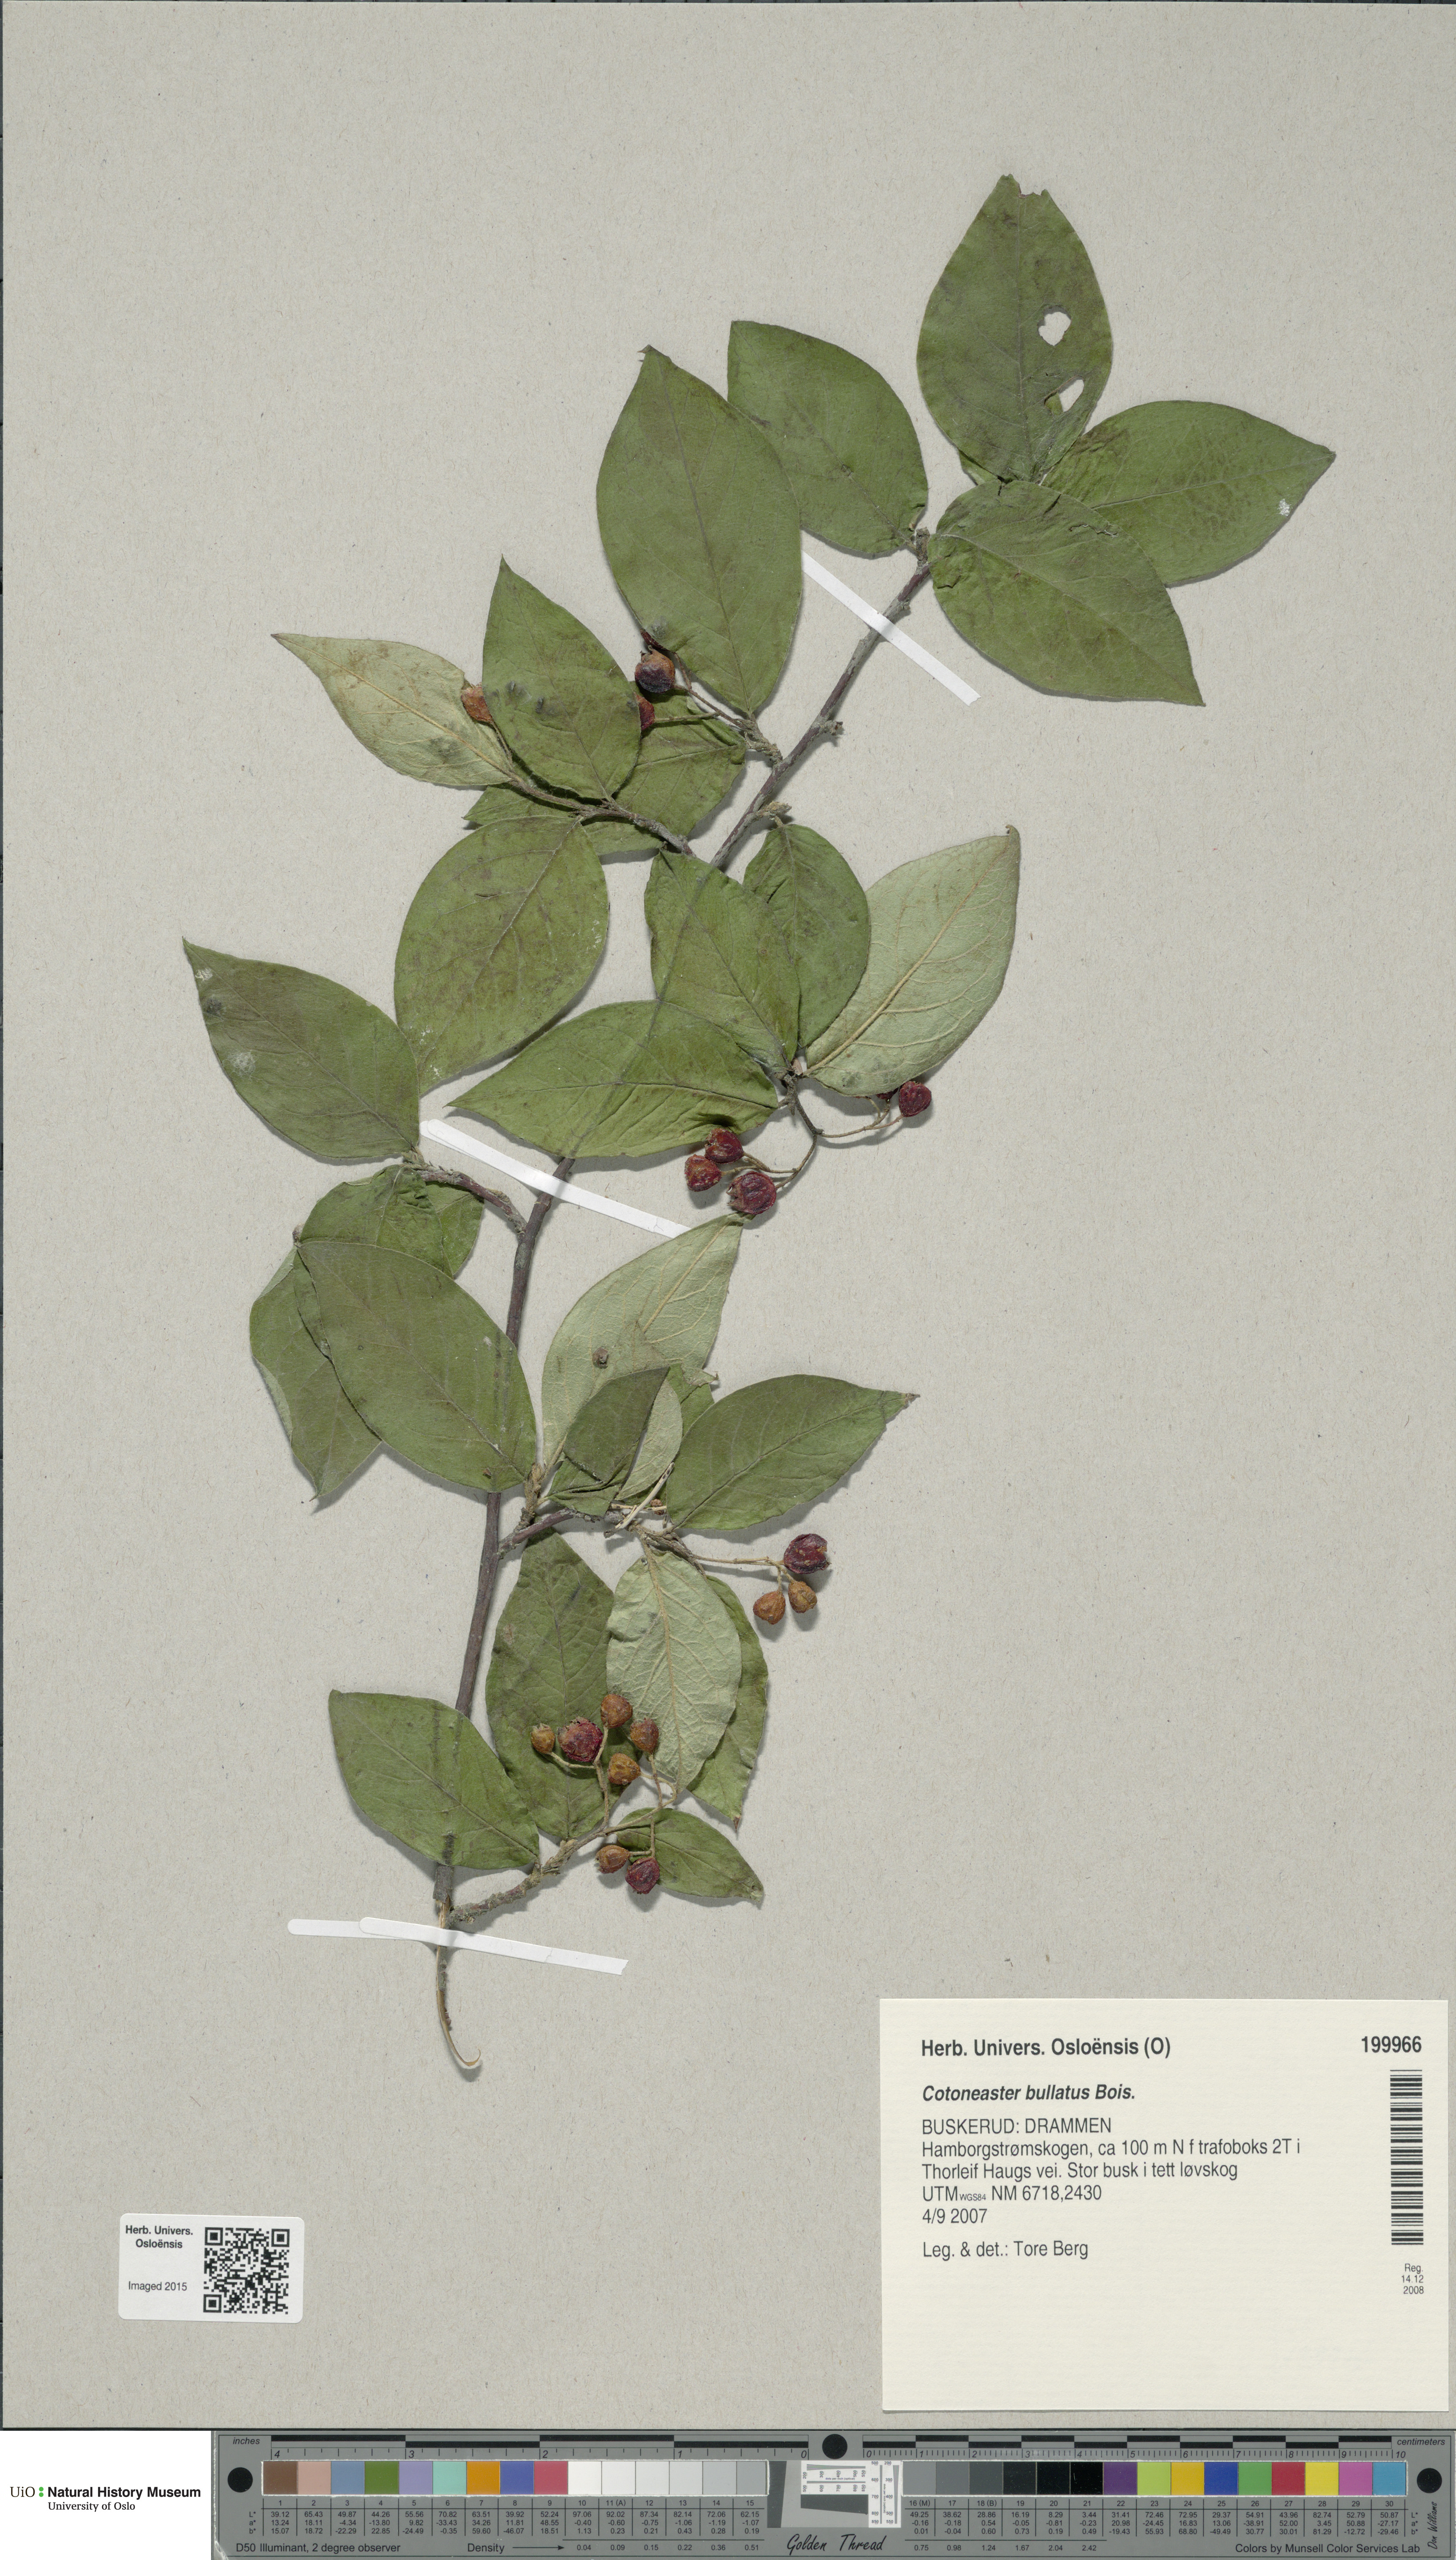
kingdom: Plantae
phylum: Tracheophyta
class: Magnoliopsida
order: Rosales
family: Rosaceae
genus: Cotoneaster
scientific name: Cotoneaster bullatus
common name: Hollyberry cotoneaster
